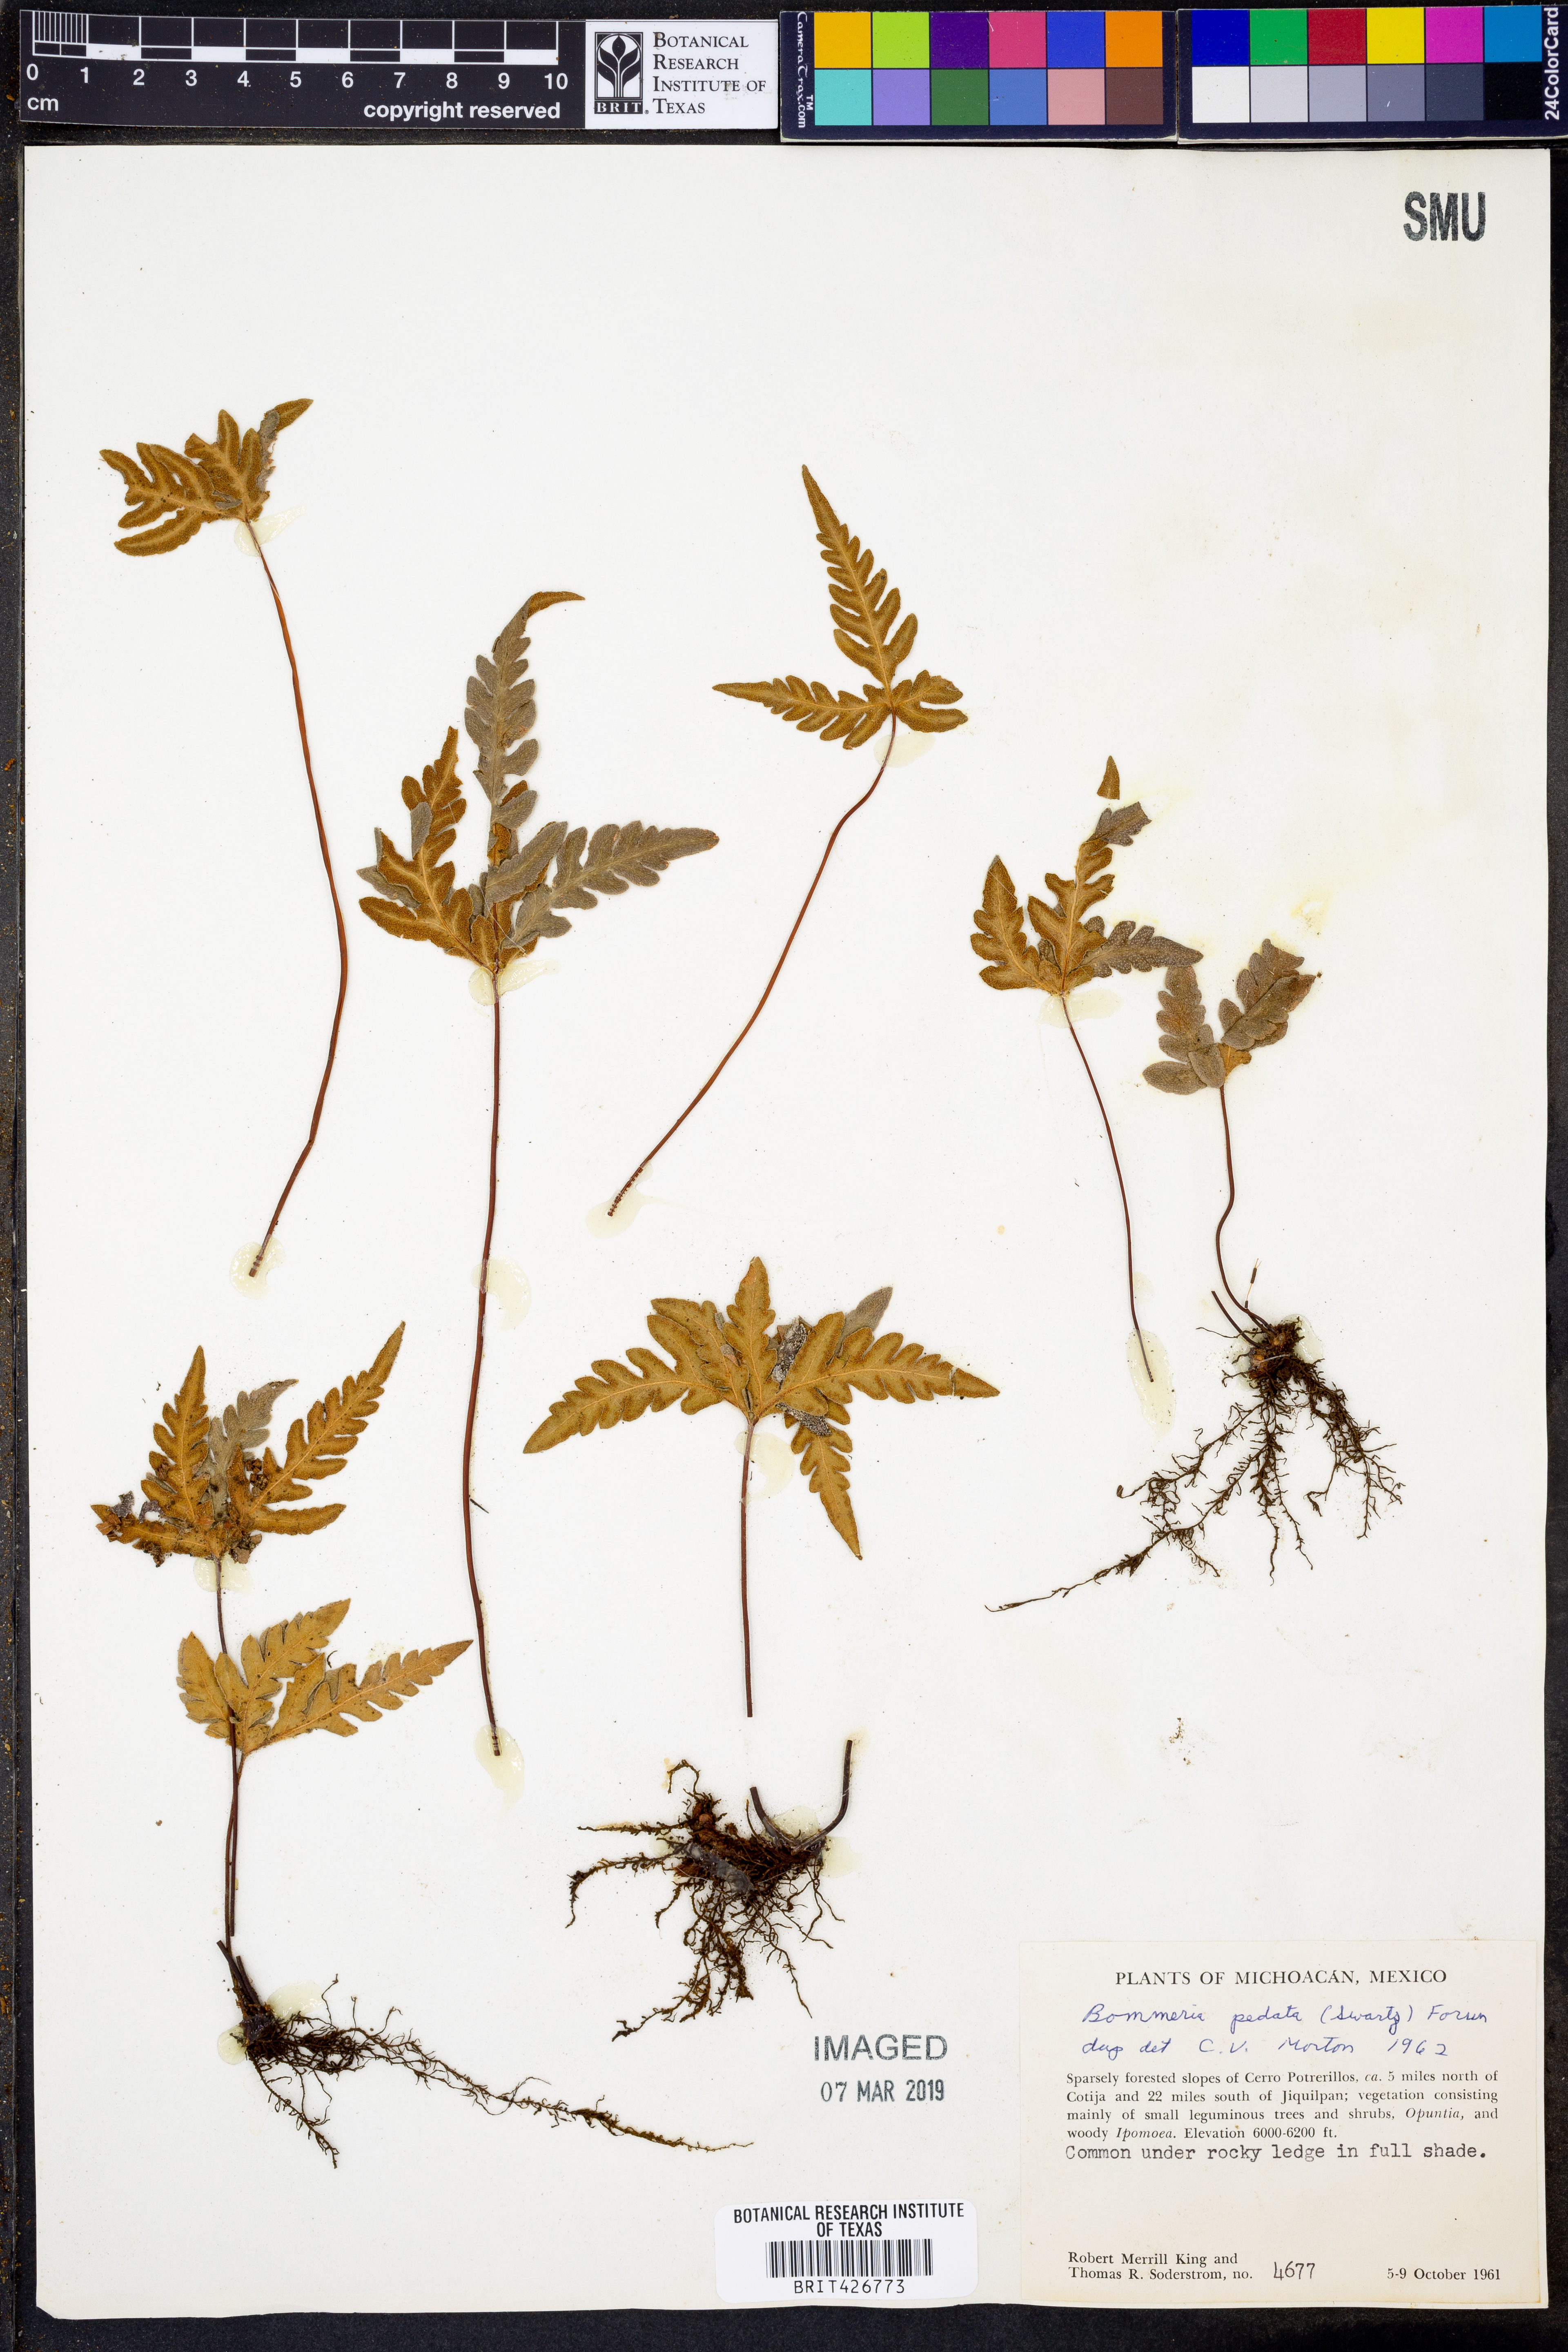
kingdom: Plantae
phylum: Tracheophyta
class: Polypodiopsida
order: Polypodiales
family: Pteridaceae
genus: Bommeria
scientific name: Bommeria pedata
